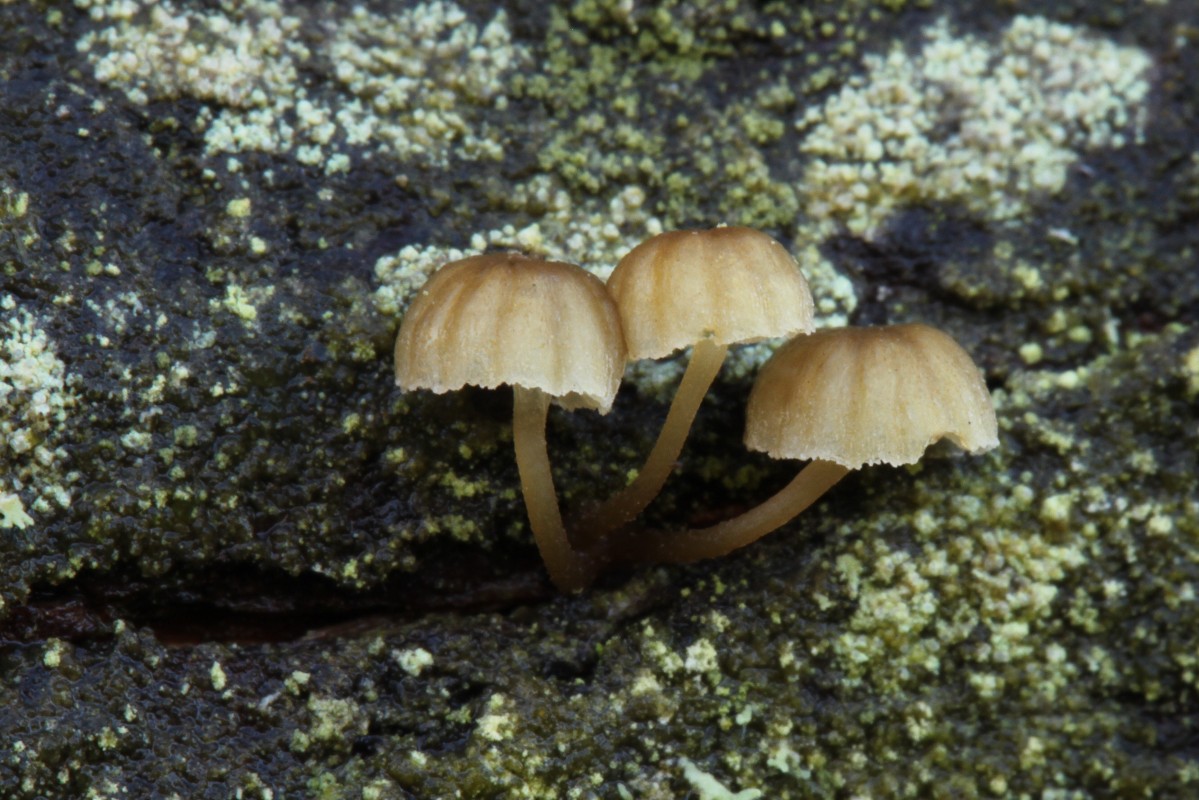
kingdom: Fungi
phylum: Basidiomycota
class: Agaricomycetes
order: Agaricales
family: Mycenaceae
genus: Mycena
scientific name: Mycena juniperina
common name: ene-Huesvamp
